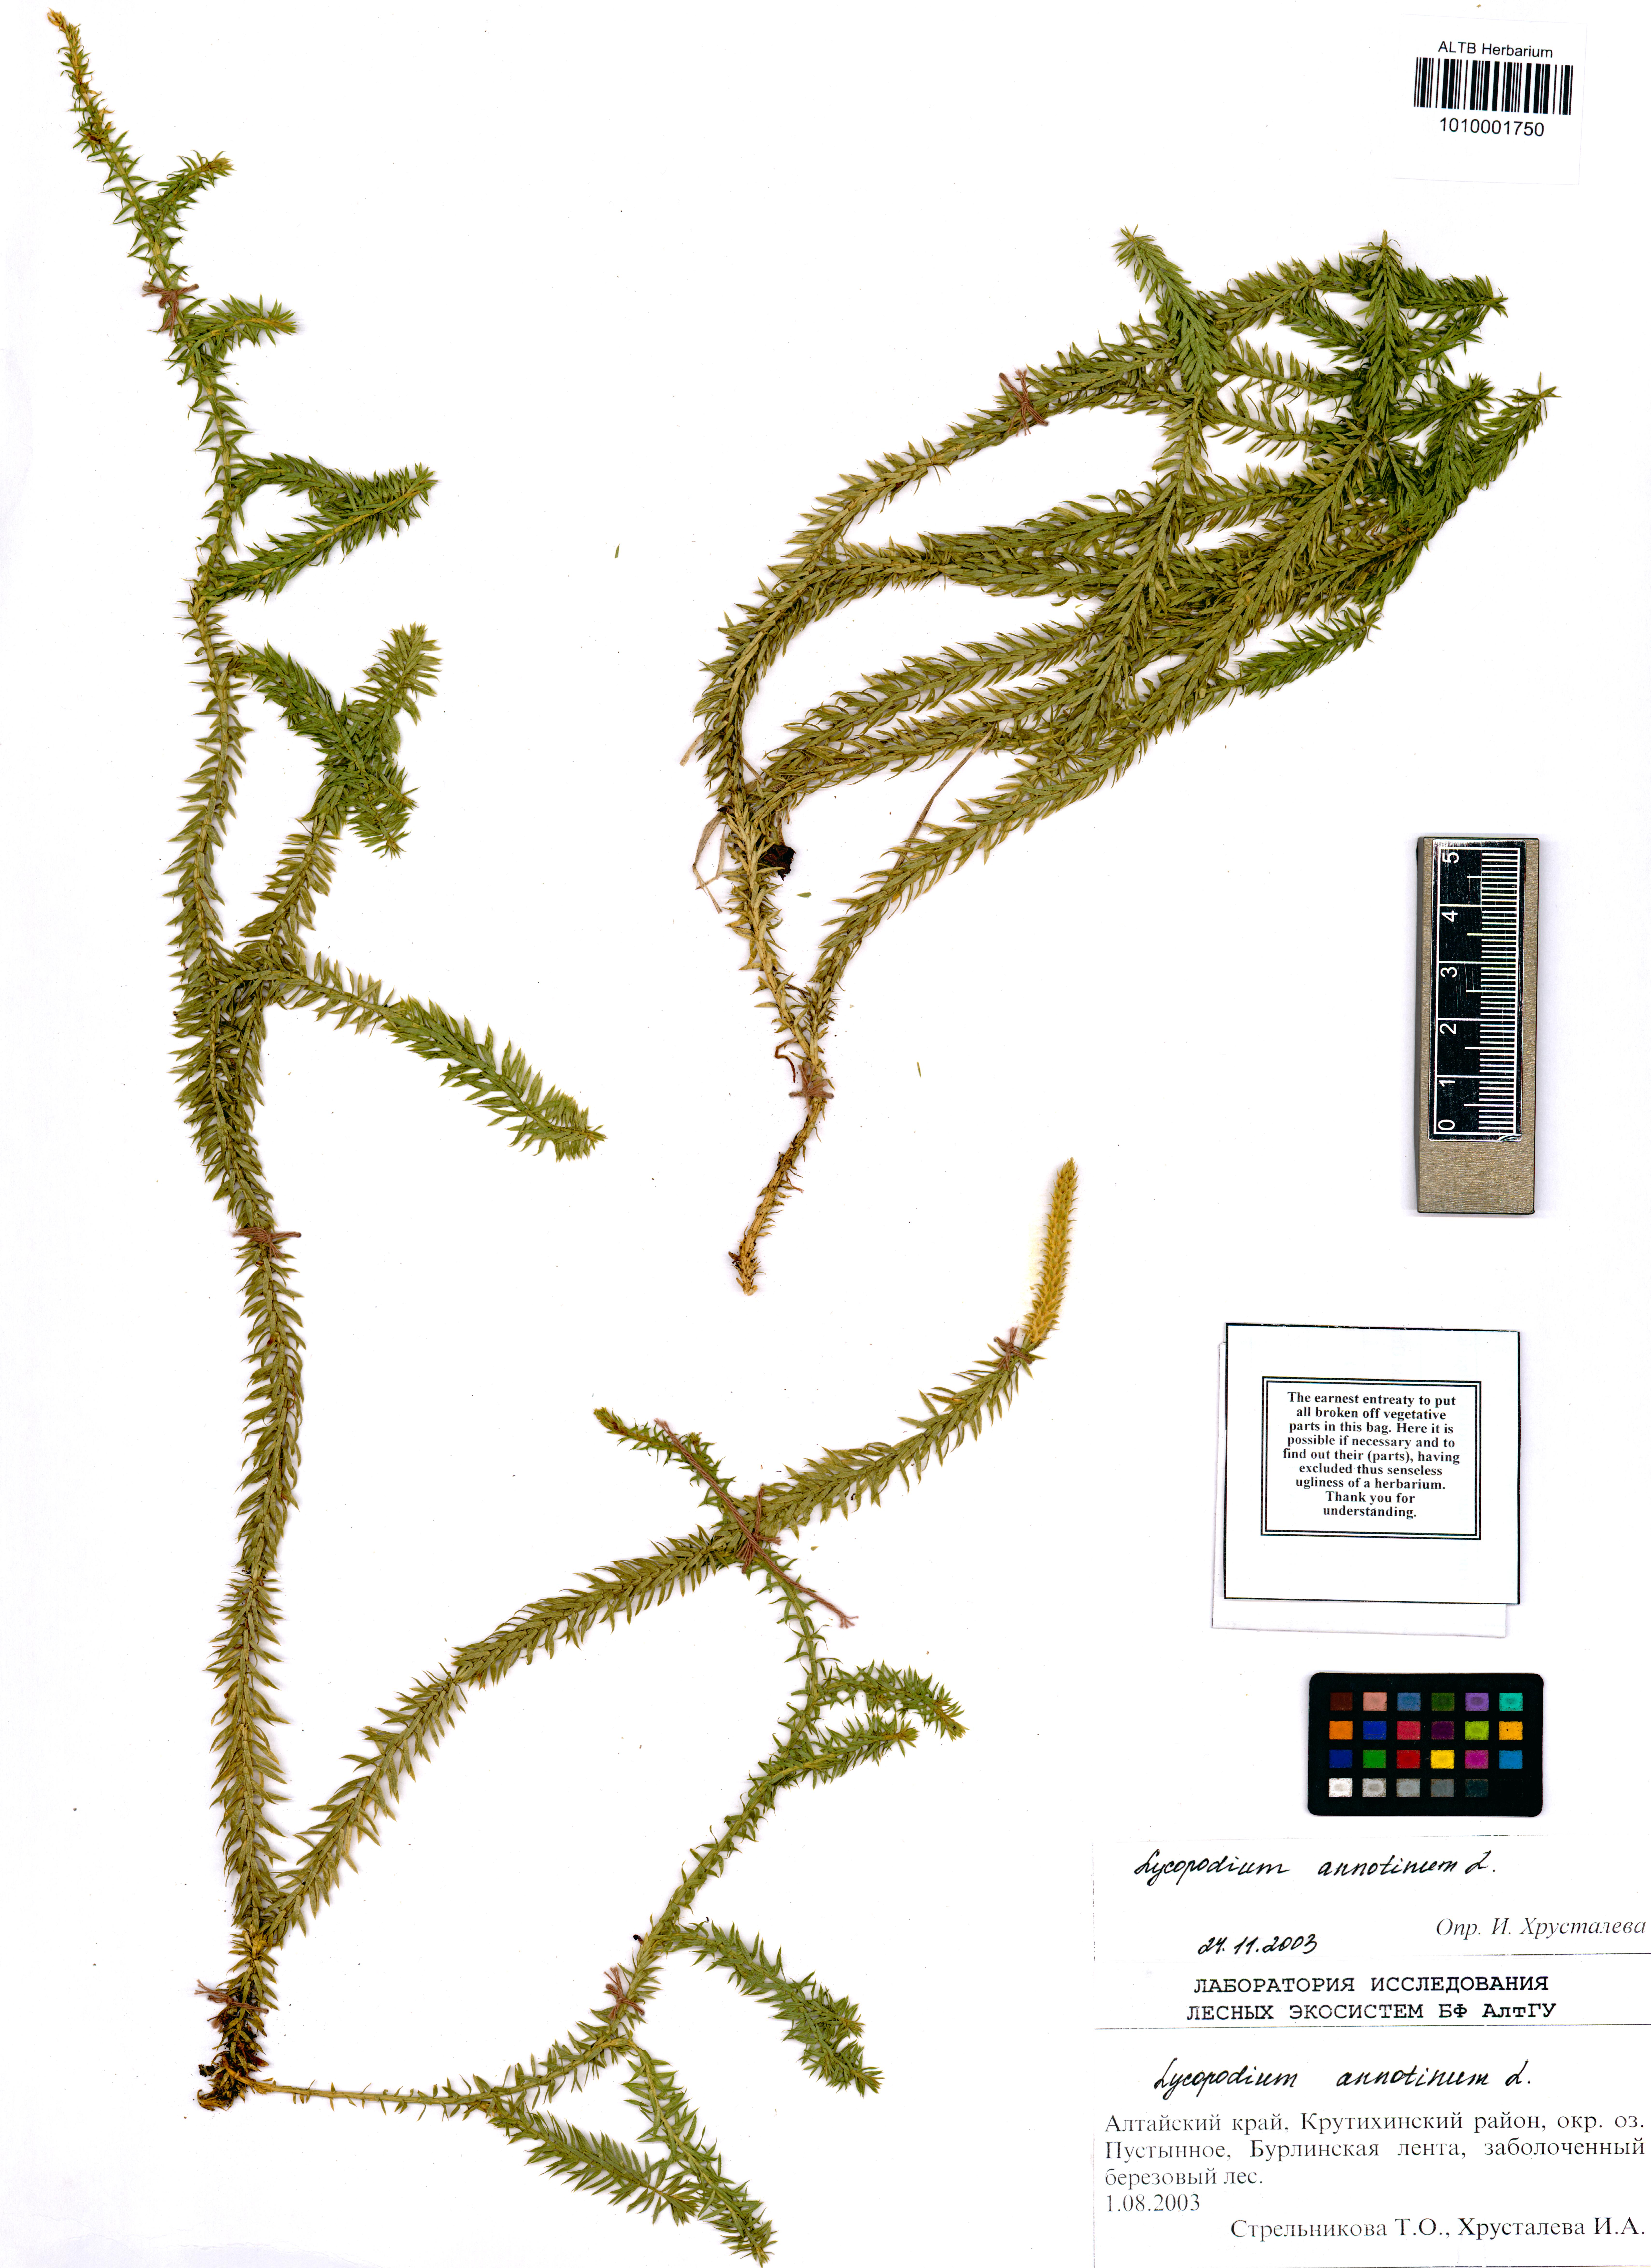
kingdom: Plantae
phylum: Tracheophyta
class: Lycopodiopsida
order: Lycopodiales
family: Lycopodiaceae
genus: Spinulum
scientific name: Spinulum annotinum
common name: Interrupted club-moss
